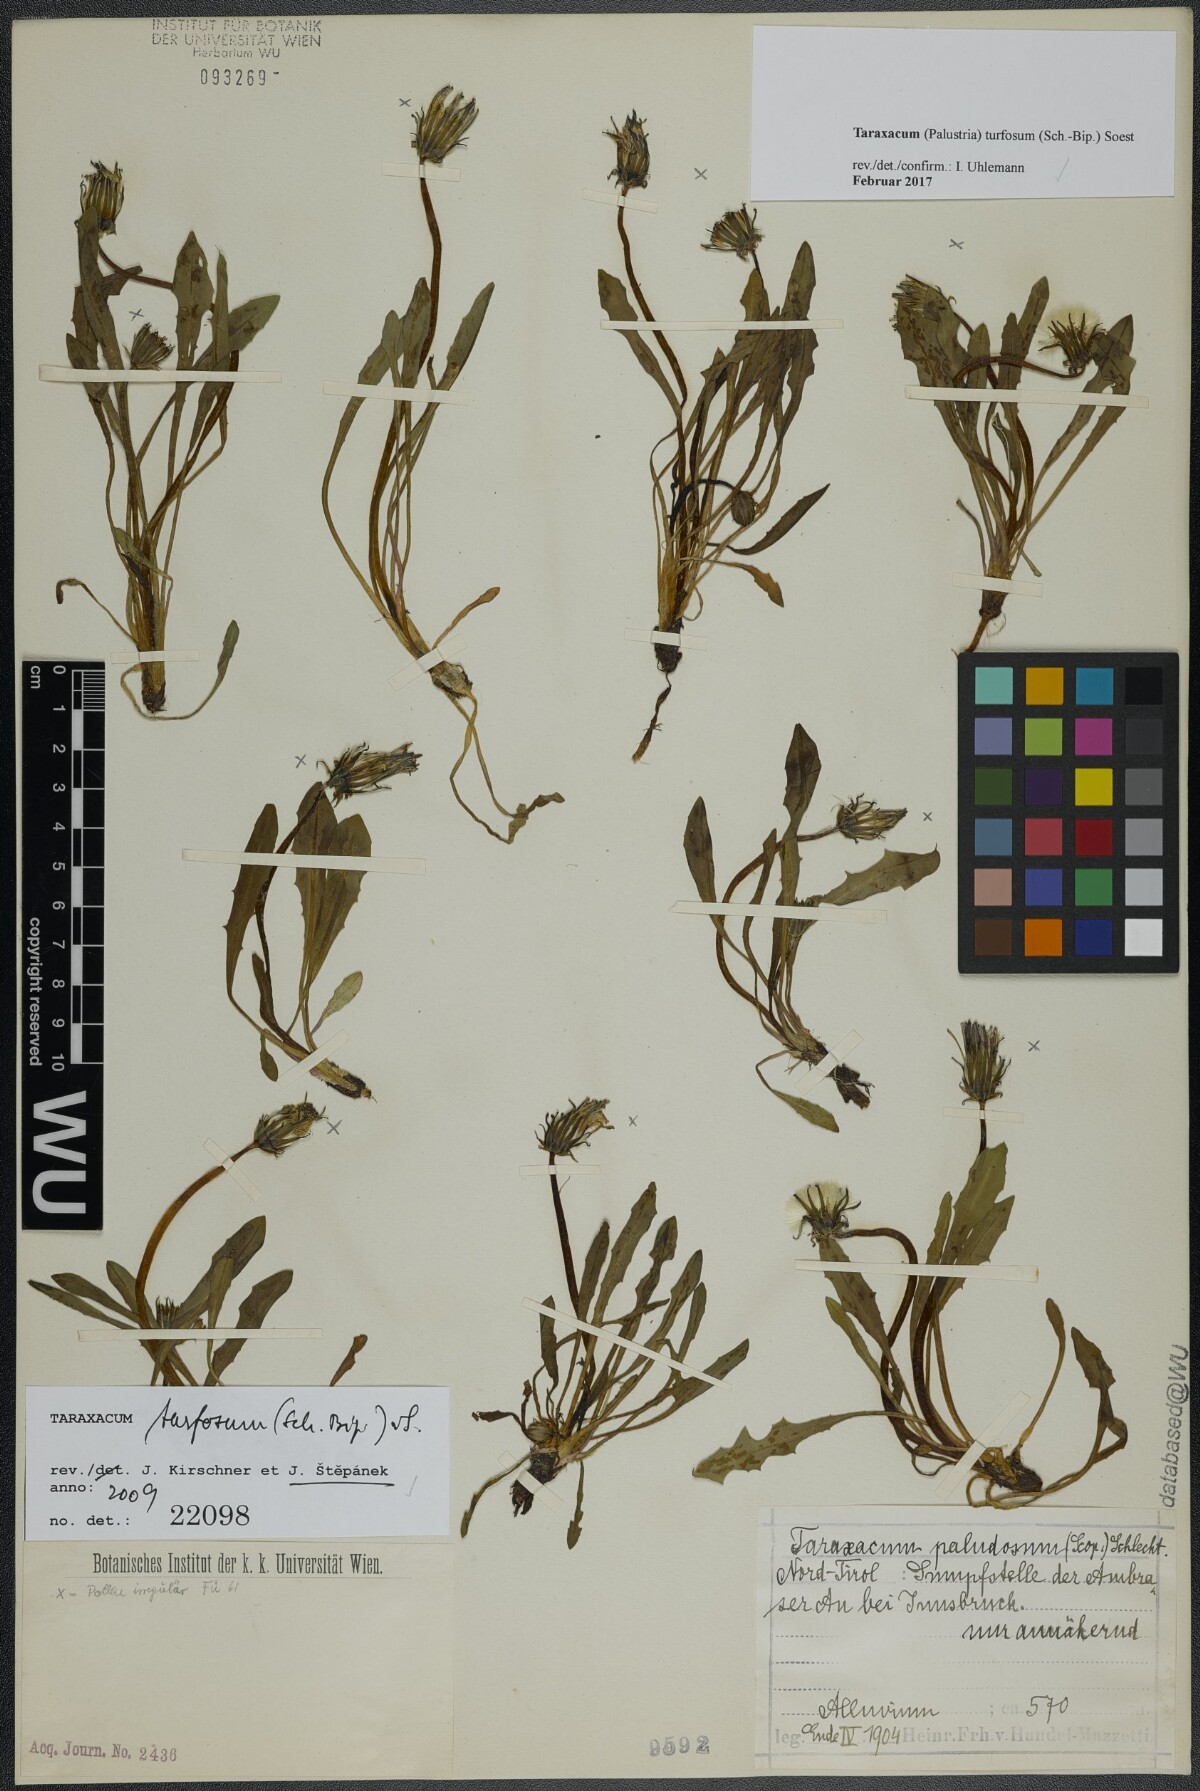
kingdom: Plantae
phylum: Tracheophyta
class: Magnoliopsida
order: Asterales
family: Asteraceae
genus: Taraxacum
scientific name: Taraxacum turfosum
